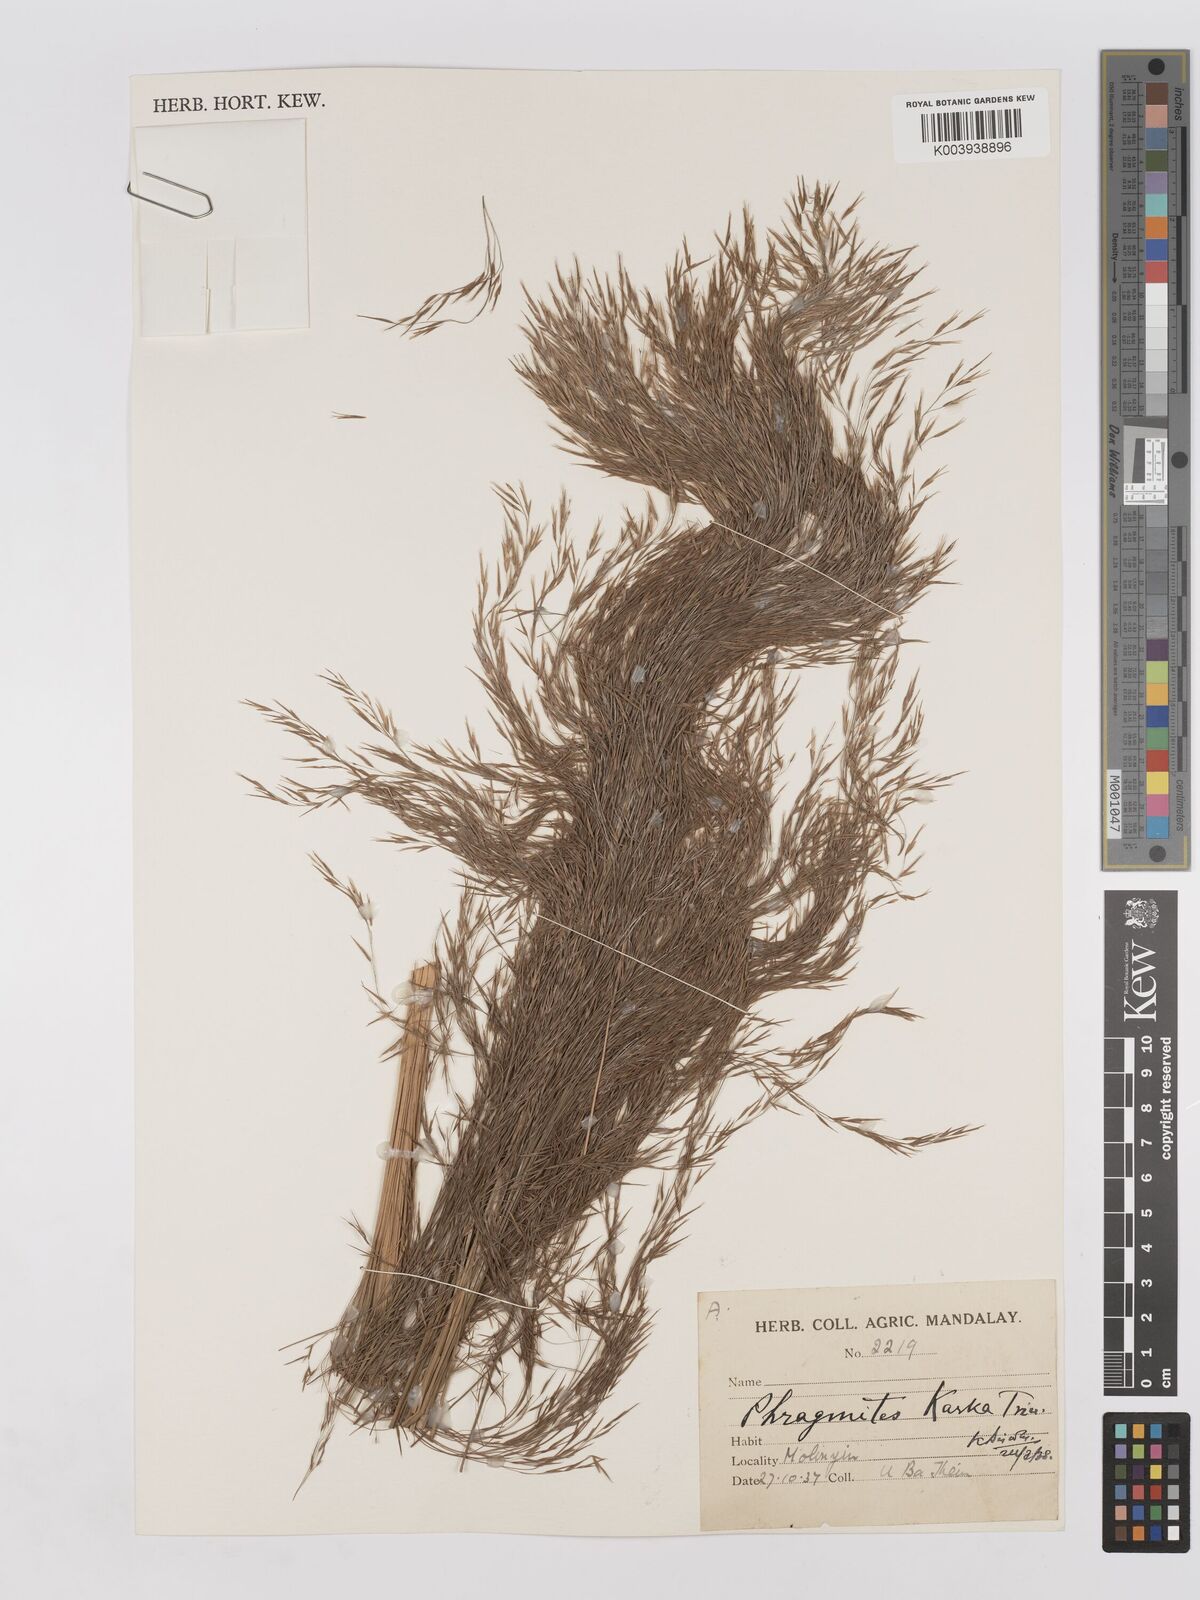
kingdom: Plantae
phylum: Tracheophyta
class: Liliopsida
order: Poales
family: Poaceae
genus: Phragmites
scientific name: Phragmites karka
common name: Tropical reed
